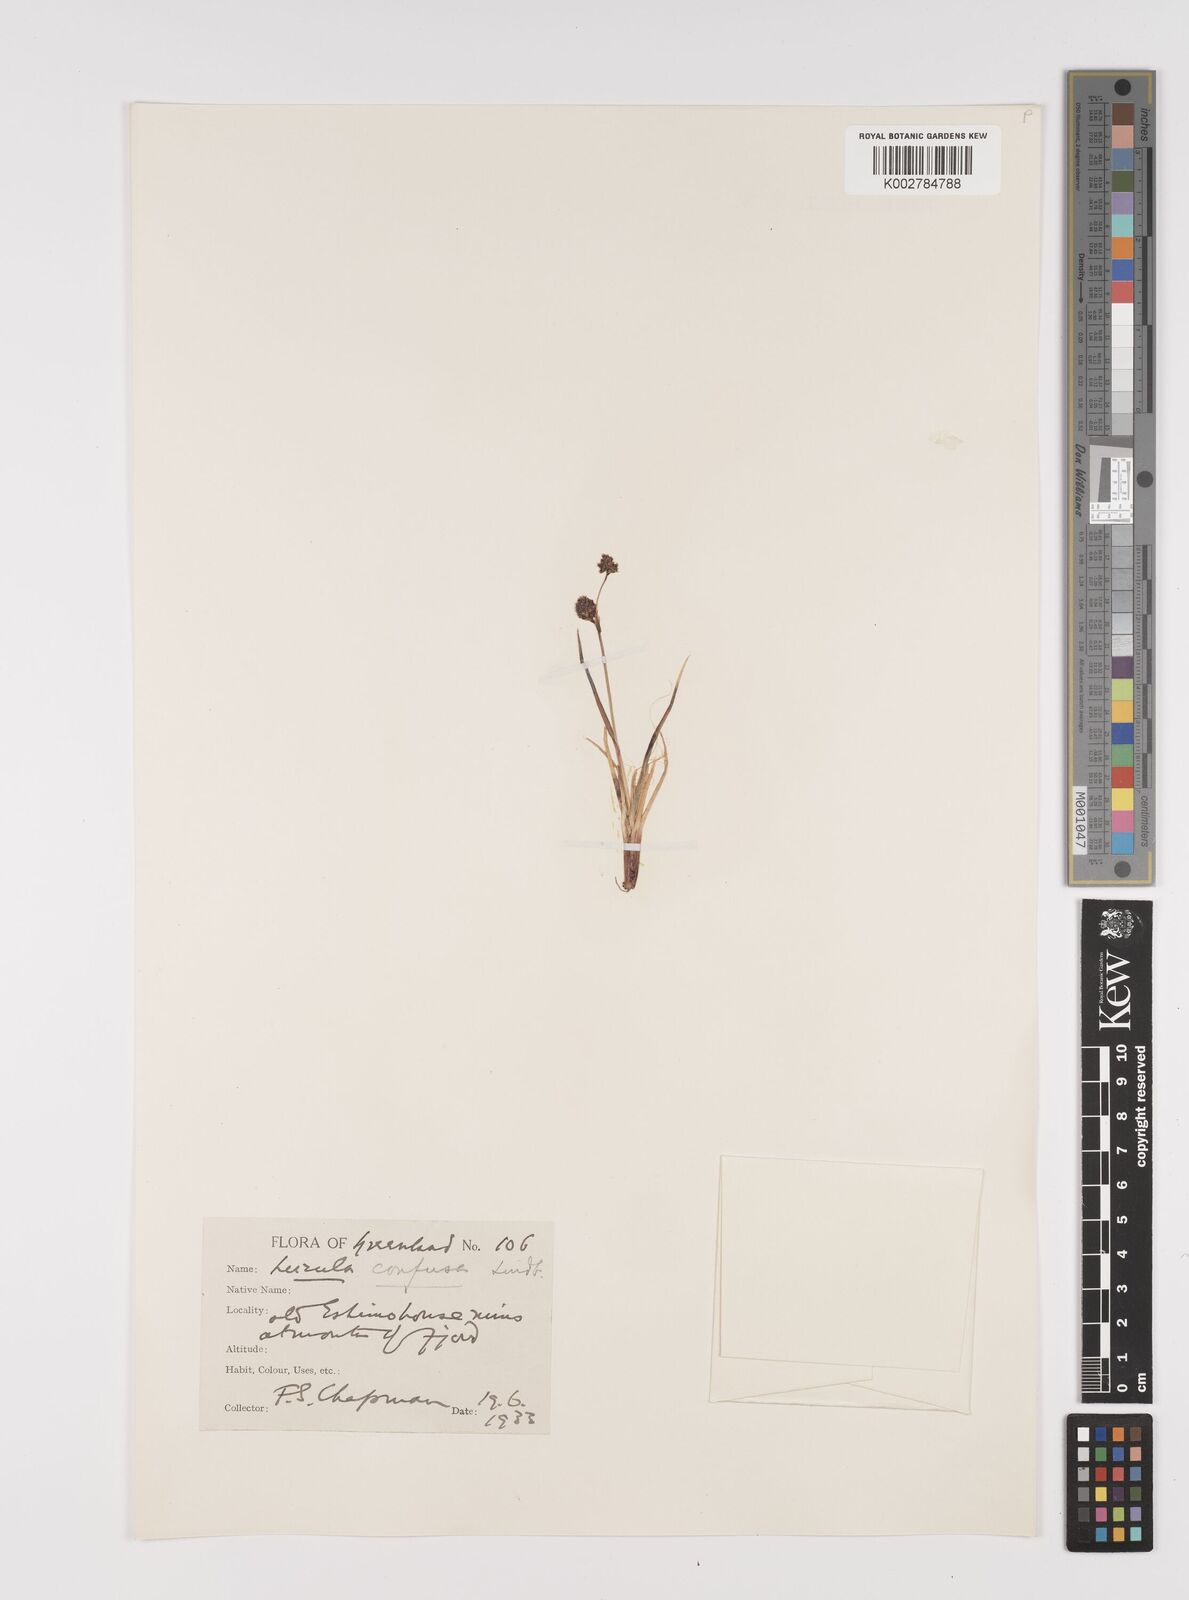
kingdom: Plantae
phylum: Tracheophyta
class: Liliopsida
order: Poales
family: Juncaceae
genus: Luzula
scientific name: Luzula confusa
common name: Northern wood rush
